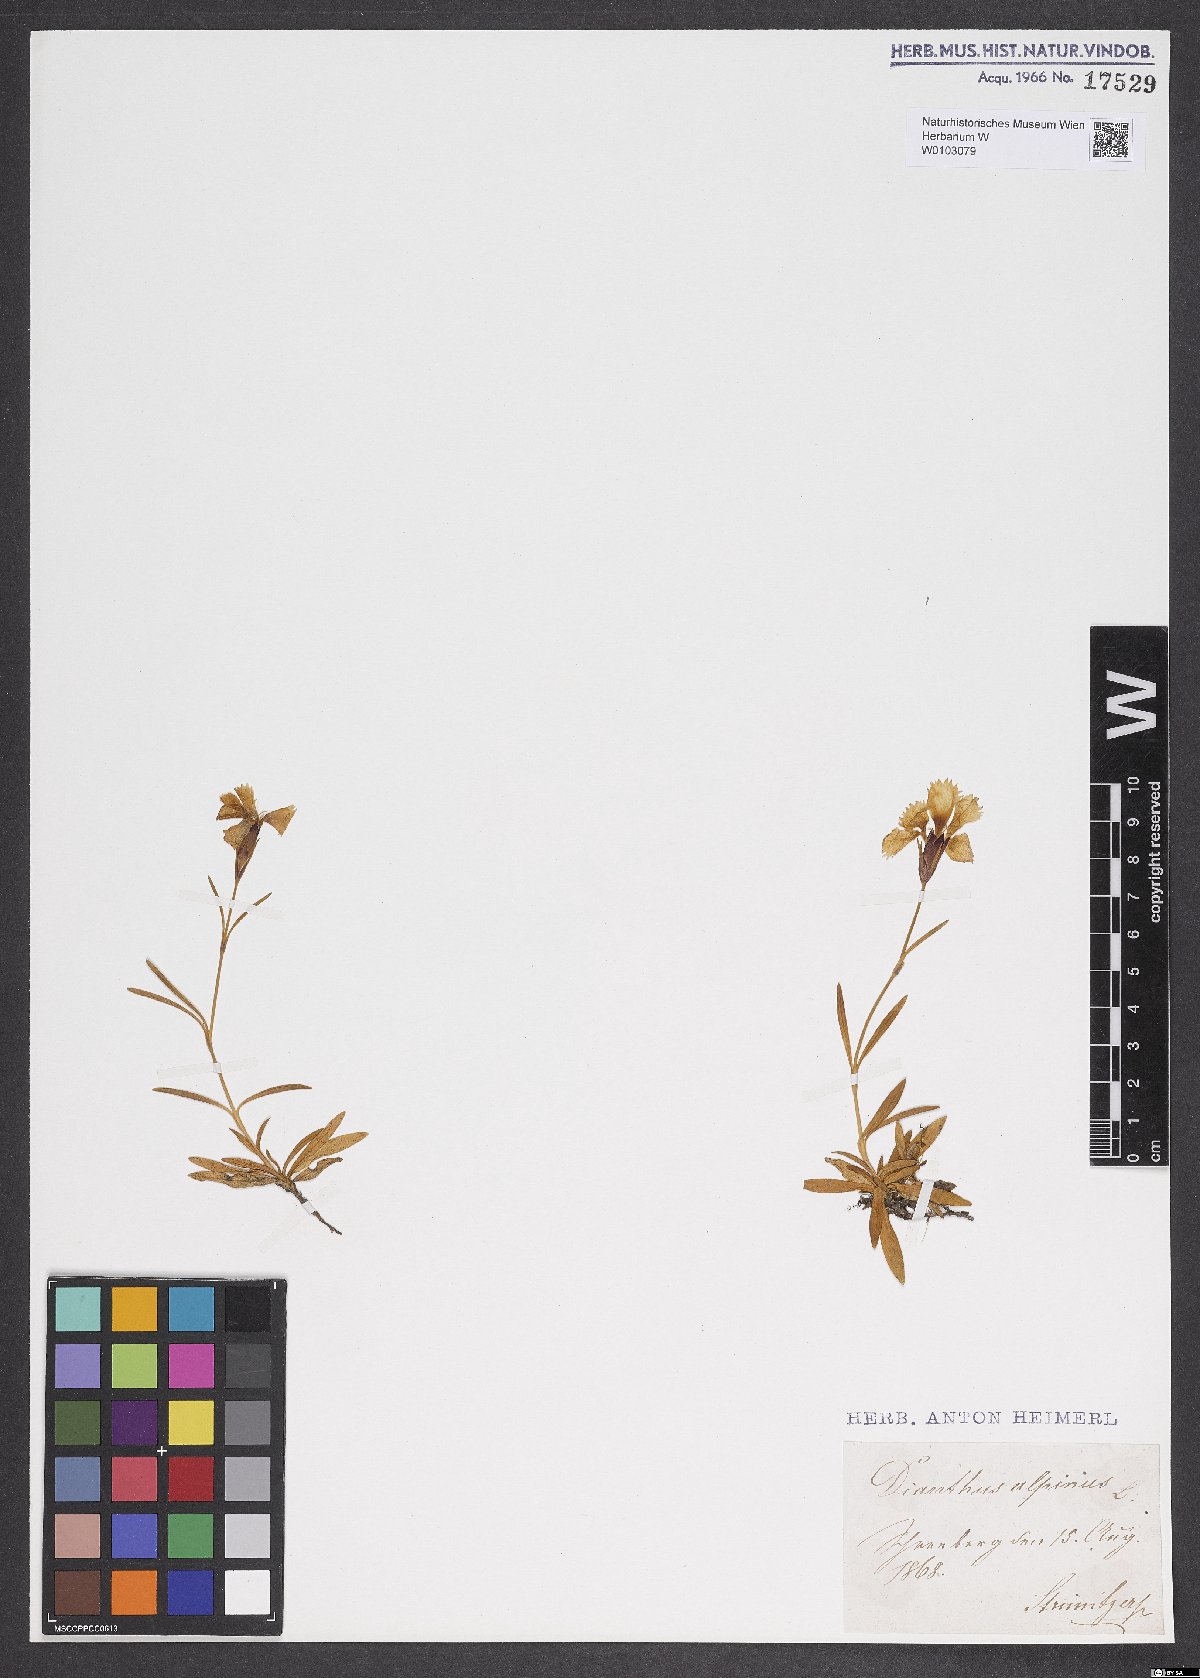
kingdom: Plantae
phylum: Tracheophyta
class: Magnoliopsida
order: Caryophyllales
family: Caryophyllaceae
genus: Dianthus
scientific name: Dianthus alpinus
